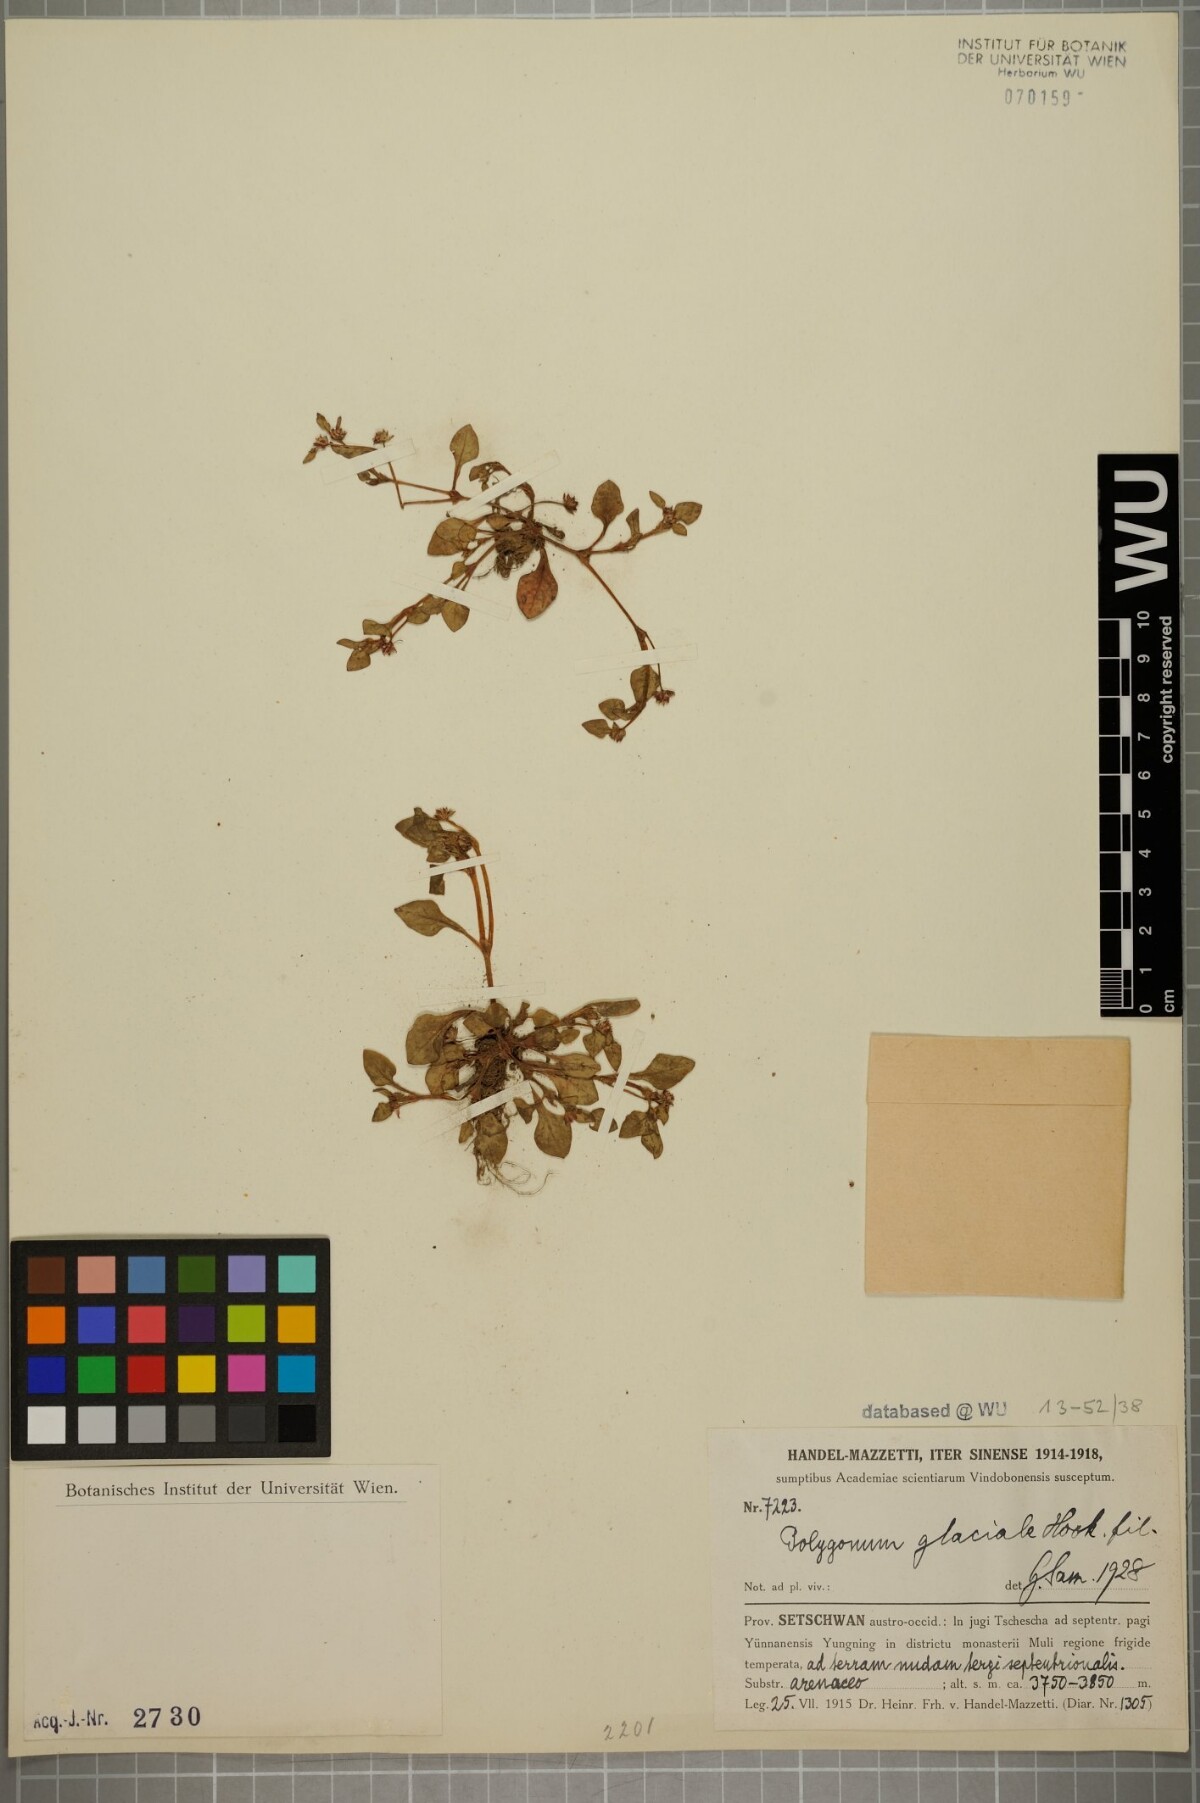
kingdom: Plantae
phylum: Tracheophyta
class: Magnoliopsida
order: Caryophyllales
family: Polygonaceae
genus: Persicaria
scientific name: Persicaria glacialis
